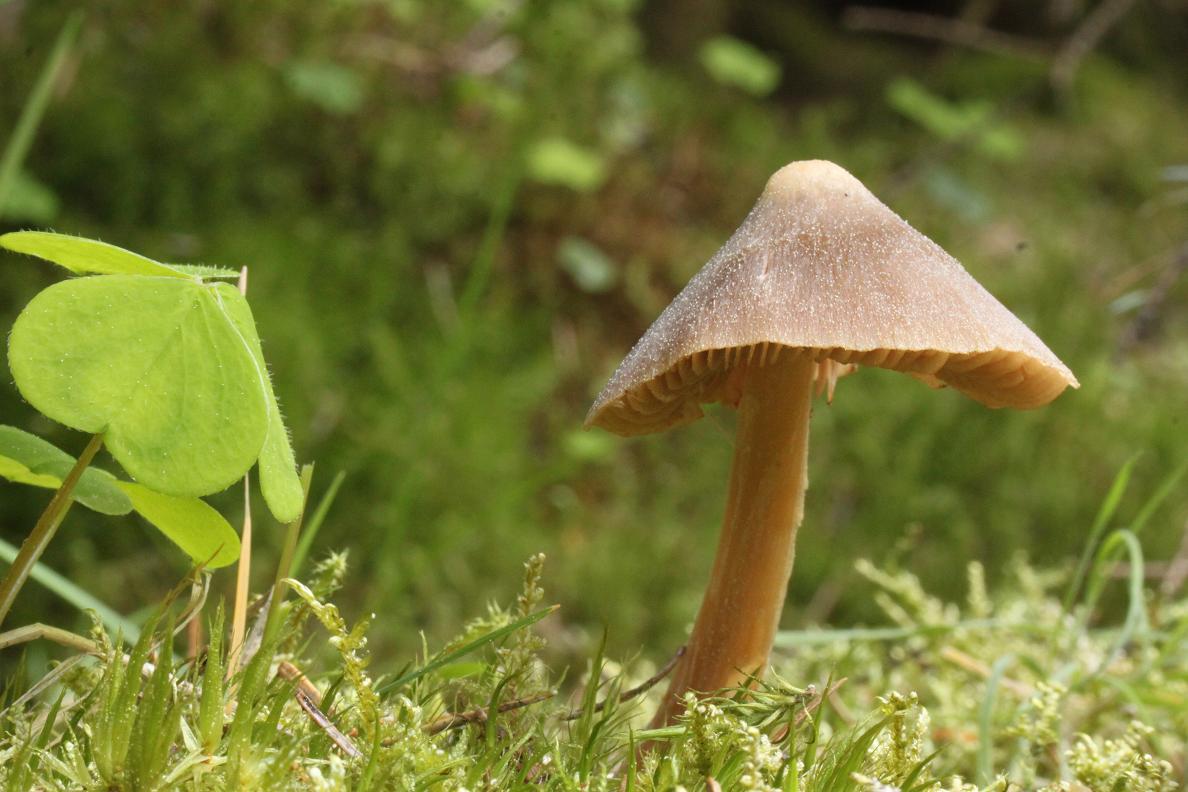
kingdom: Fungi
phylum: Basidiomycota
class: Agaricomycetes
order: Agaricales
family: Entolomataceae
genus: Entoloma
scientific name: Entoloma vernum
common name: vår-rødblad
